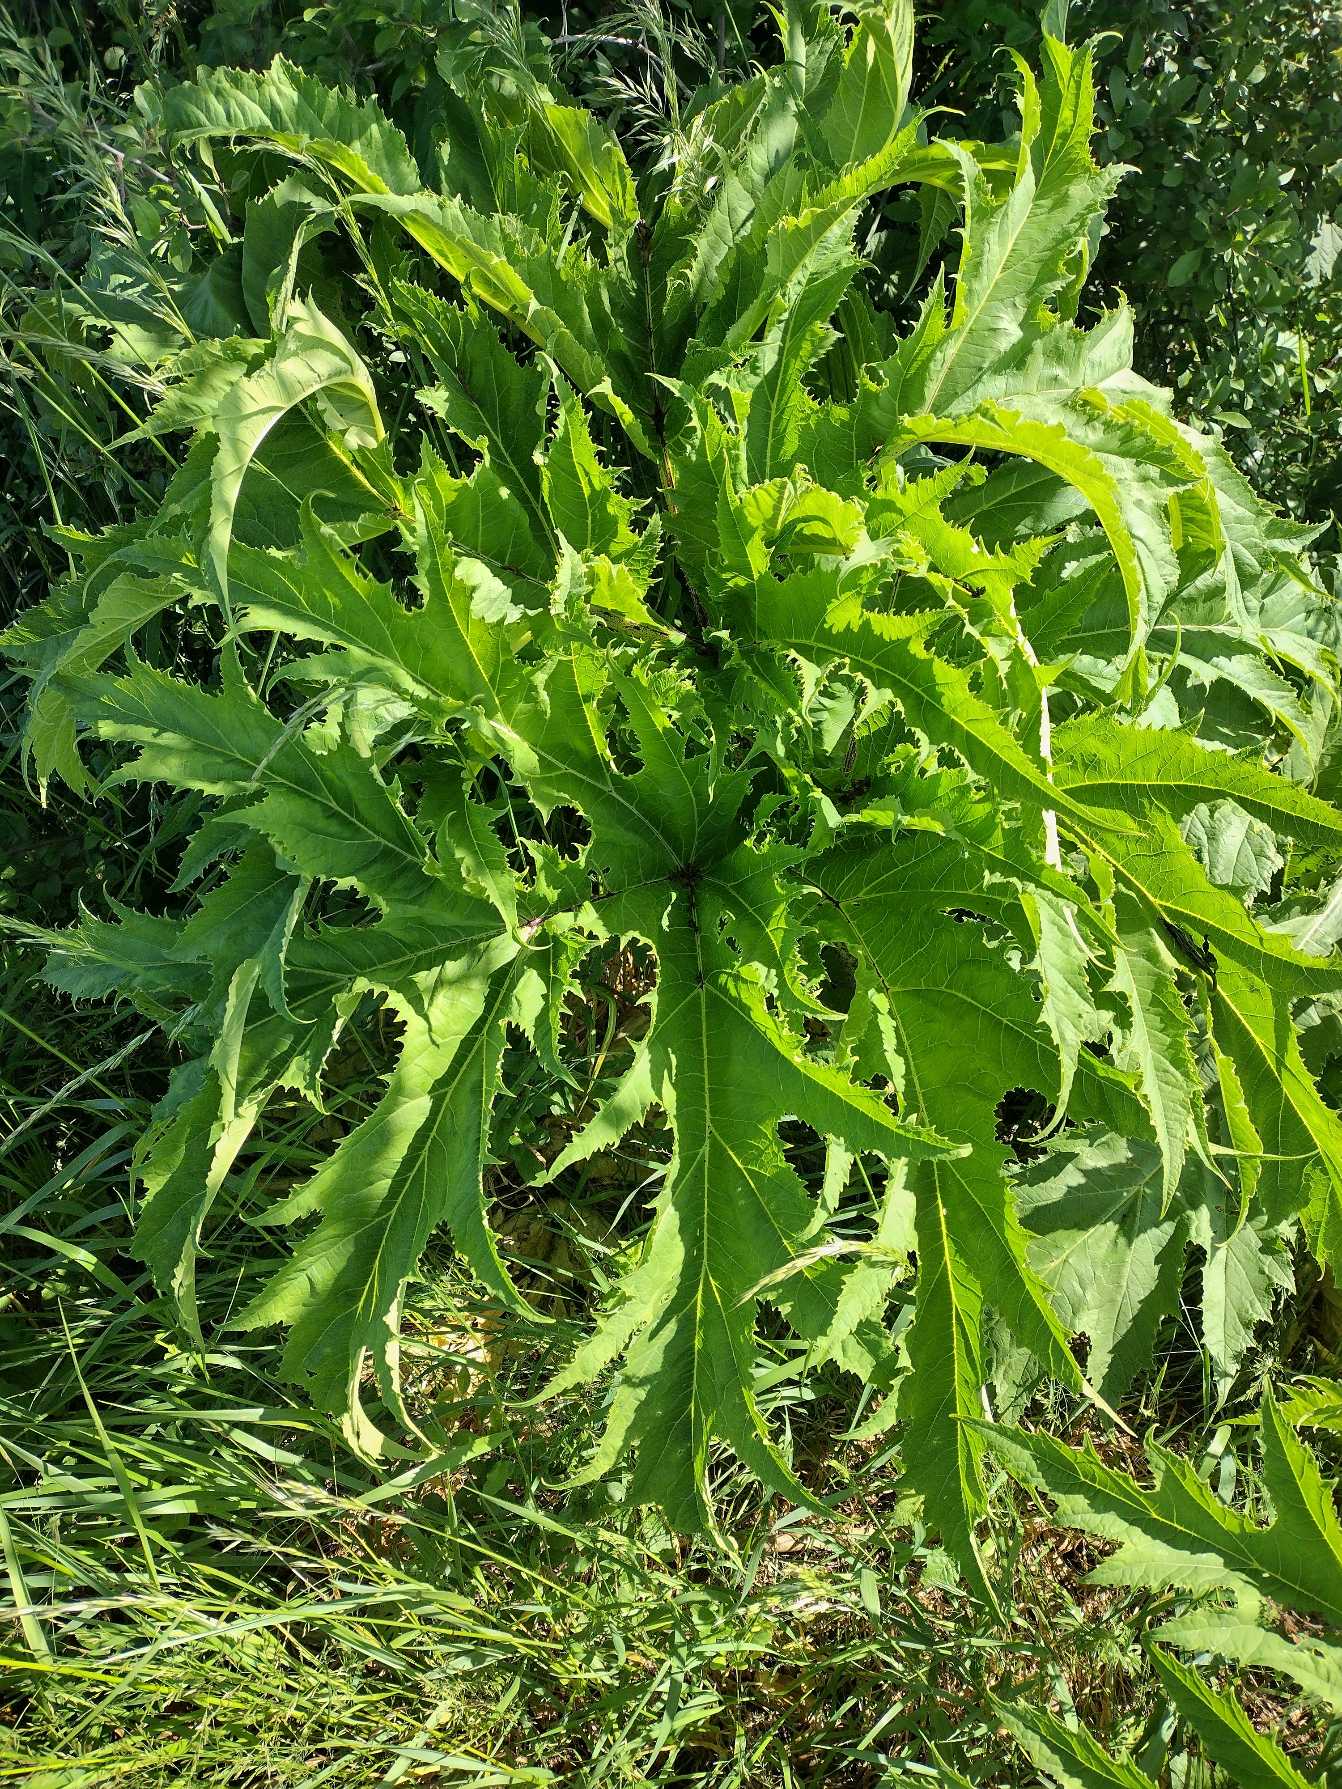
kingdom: Plantae
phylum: Tracheophyta
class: Magnoliopsida
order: Apiales
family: Apiaceae
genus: Heracleum
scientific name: Heracleum mantegazzianum
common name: Kæmpe-bjørneklo
